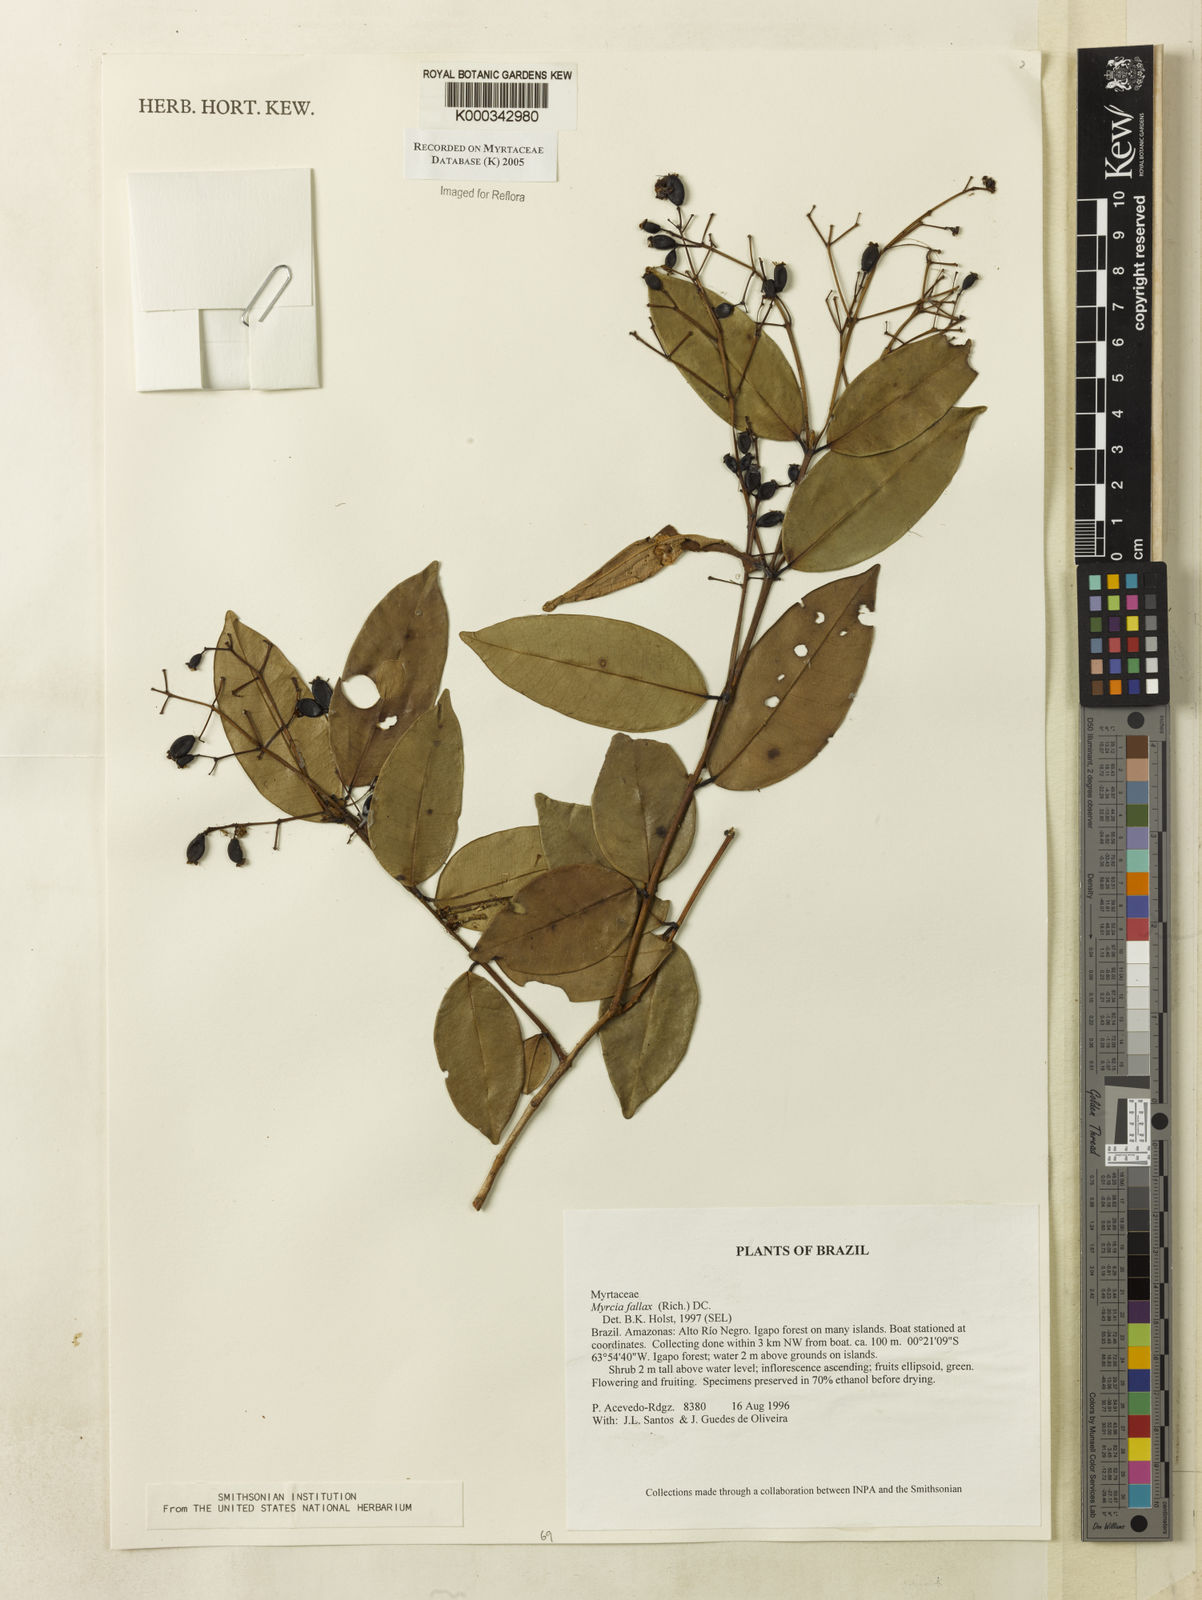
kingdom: Plantae
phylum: Tracheophyta
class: Magnoliopsida
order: Myrtales
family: Myrtaceae
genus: Myrcia
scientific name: Myrcia splendens
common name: Surinam cherry
